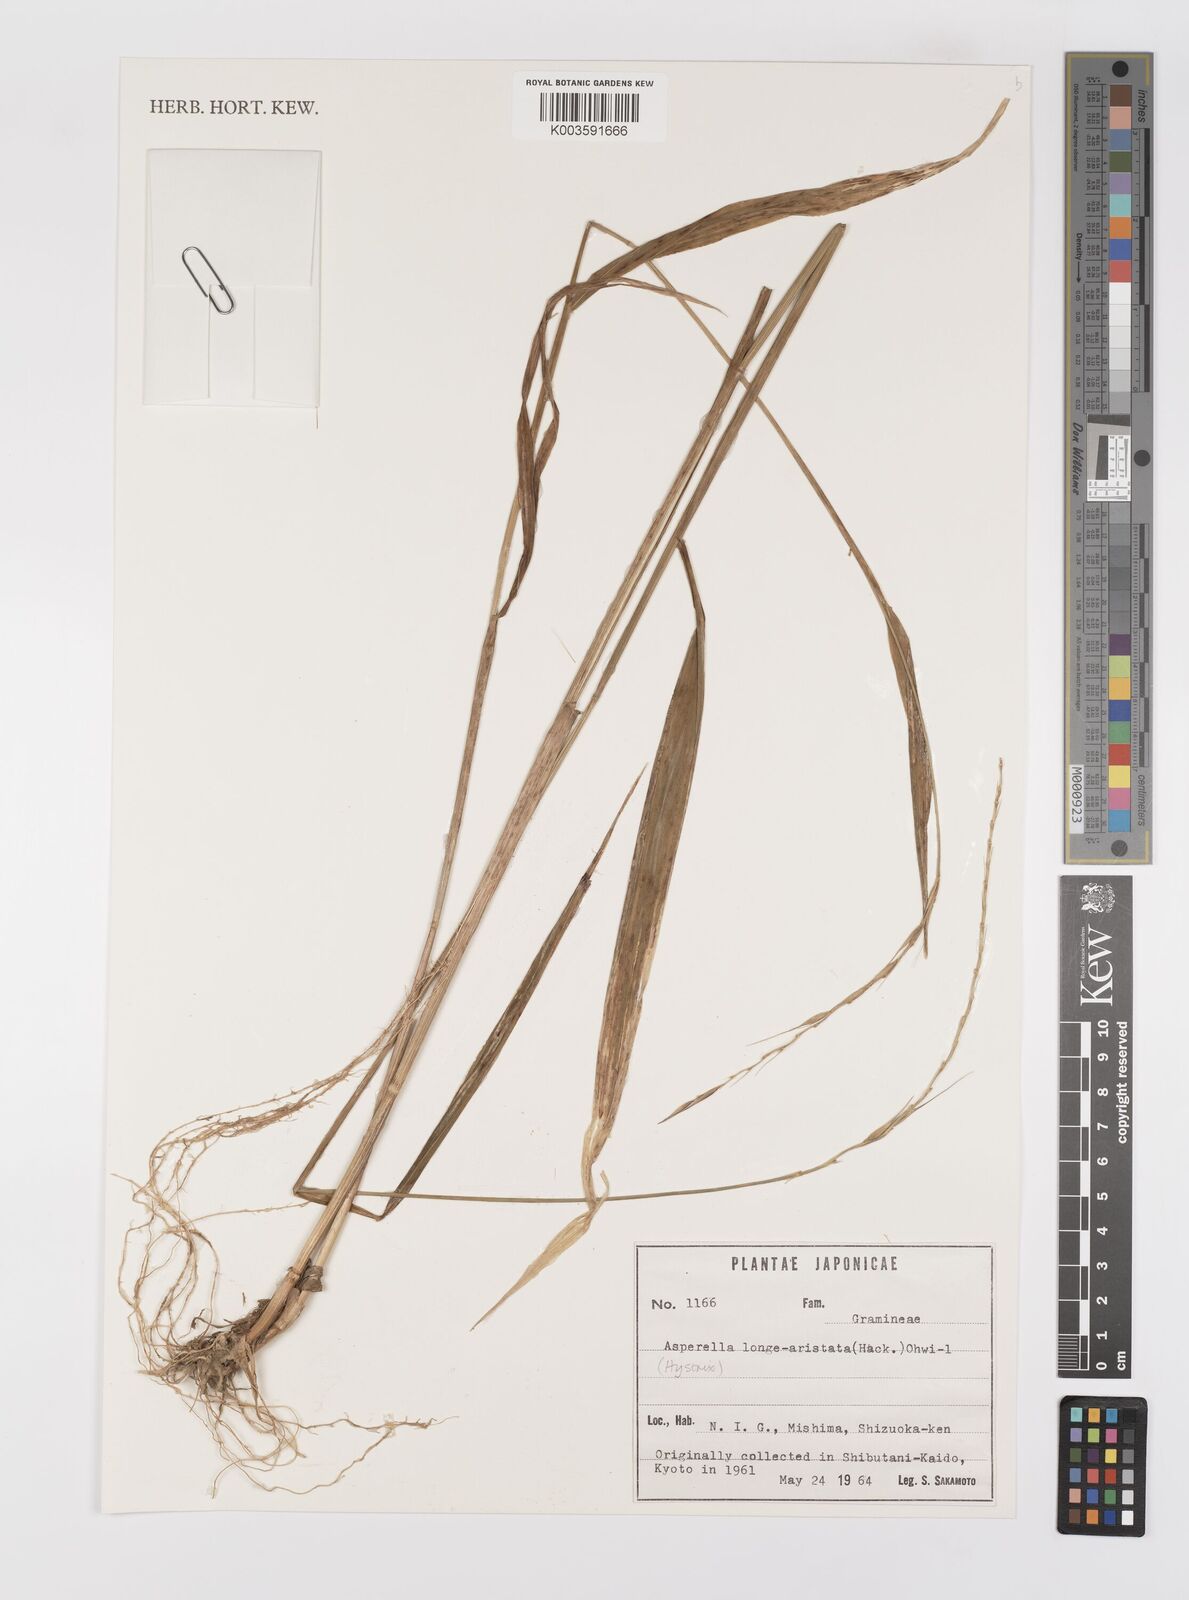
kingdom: Plantae
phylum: Tracheophyta
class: Liliopsida
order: Poales
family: Poaceae
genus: Leymus
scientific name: Leymus duthiei
